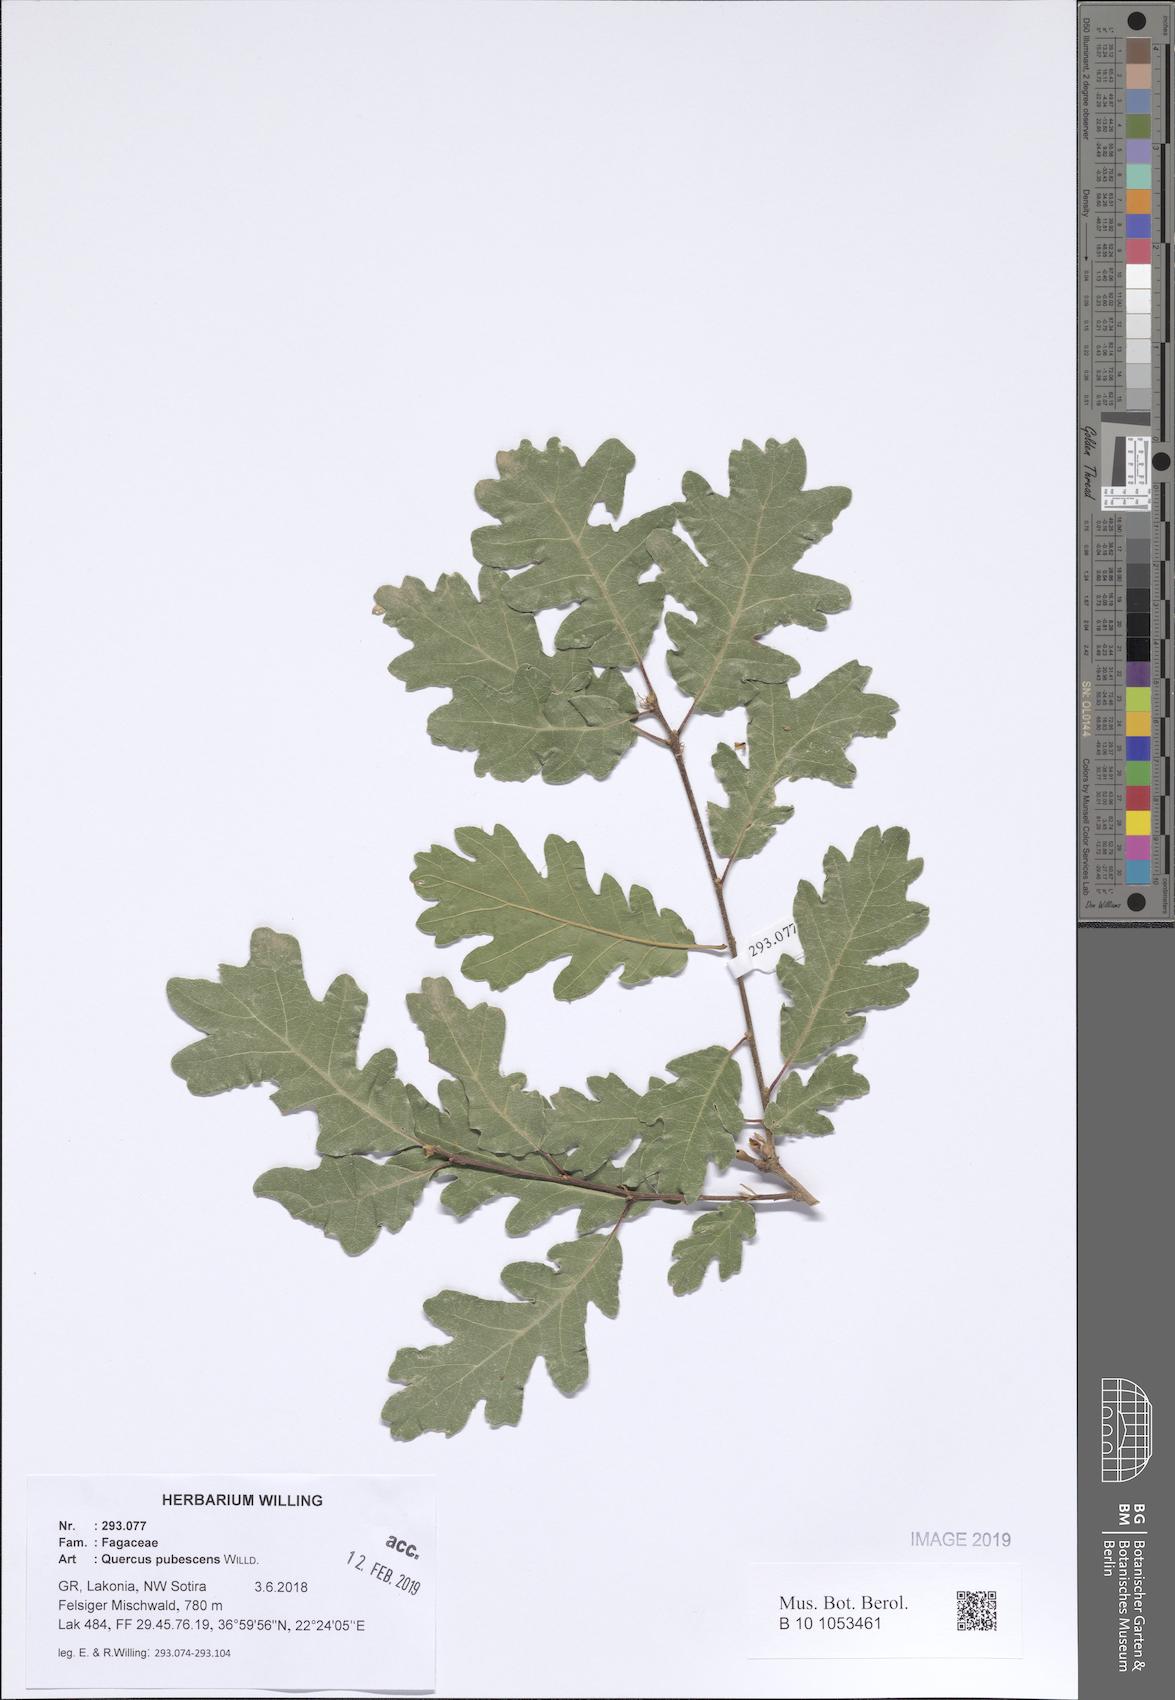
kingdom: Plantae
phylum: Tracheophyta
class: Magnoliopsida
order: Fagales
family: Fagaceae
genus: Quercus
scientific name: Quercus pubescens
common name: Downy oak
